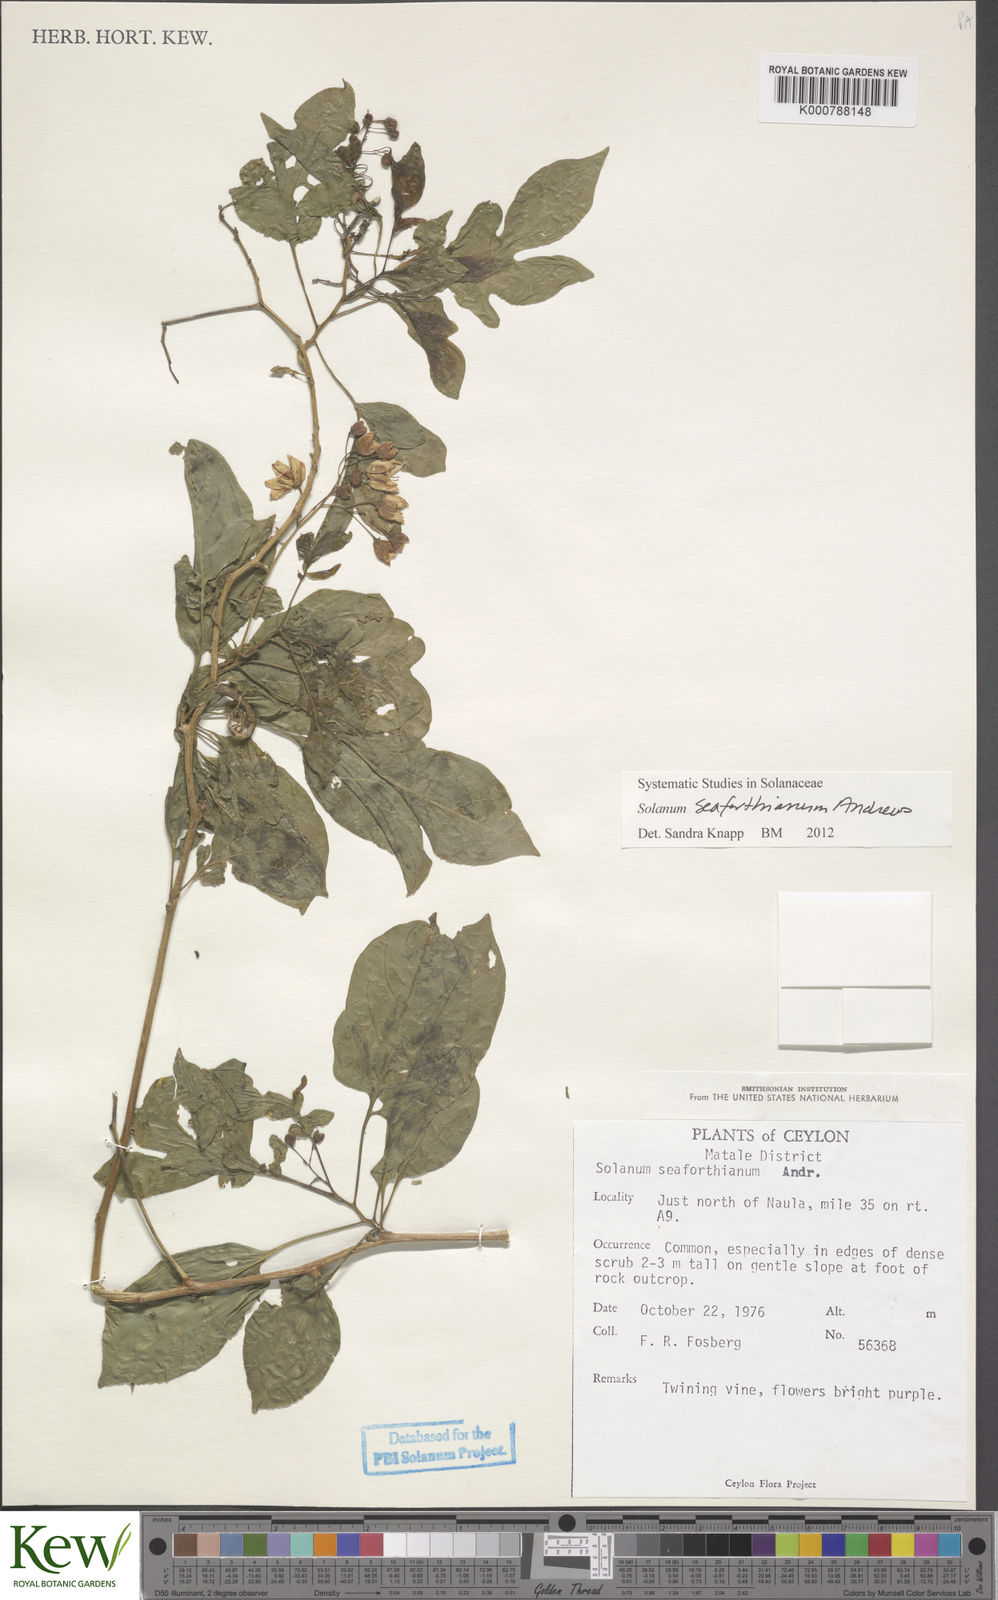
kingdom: Plantae
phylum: Tracheophyta
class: Magnoliopsida
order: Solanales
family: Solanaceae
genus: Solanum
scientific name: Solanum seaforthianum
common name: Brazilian nightshade
